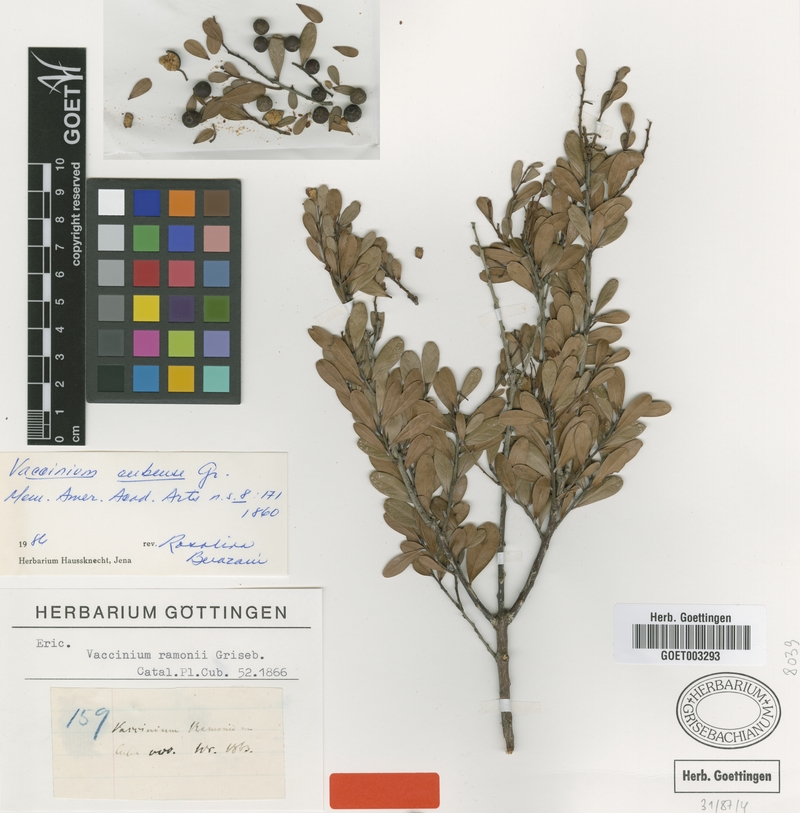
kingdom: Plantae
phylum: Tracheophyta
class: Magnoliopsida
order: Ericales
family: Ericaceae
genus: Vaccinium
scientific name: Vaccinium cubense
